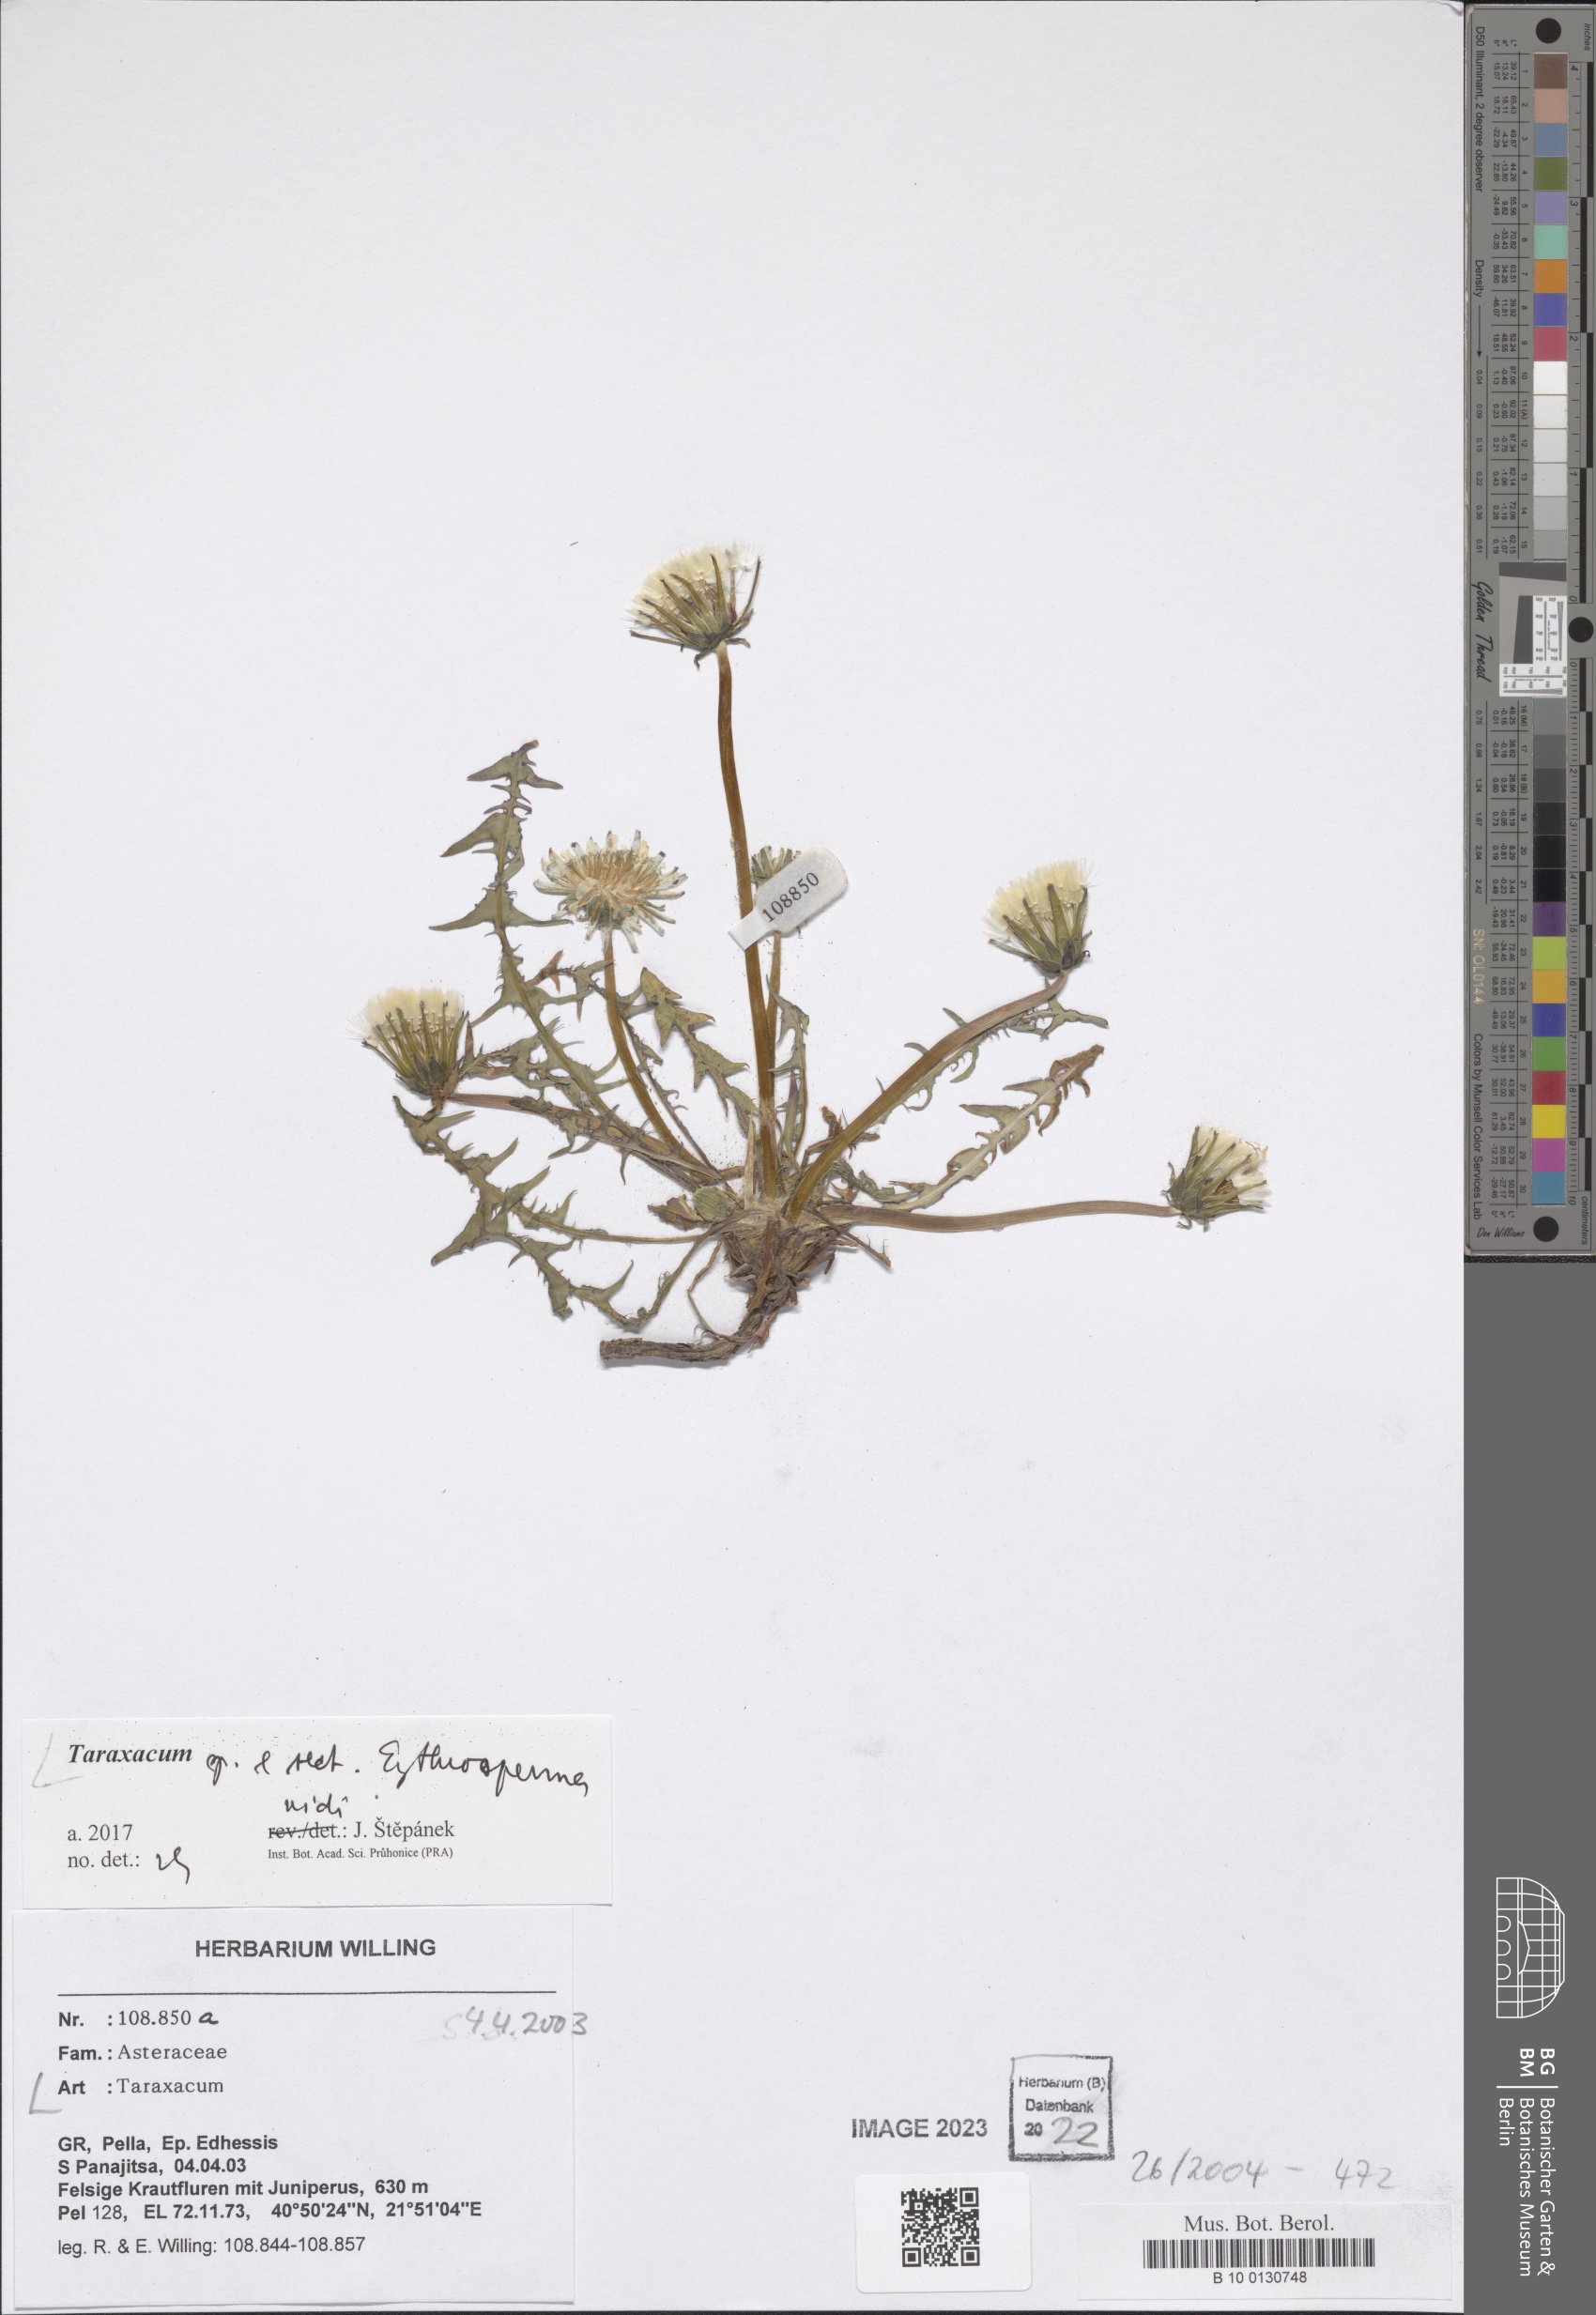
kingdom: Plantae
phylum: Tracheophyta
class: Magnoliopsida
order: Asterales
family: Asteraceae
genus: Taraxacum
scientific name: Taraxacum
